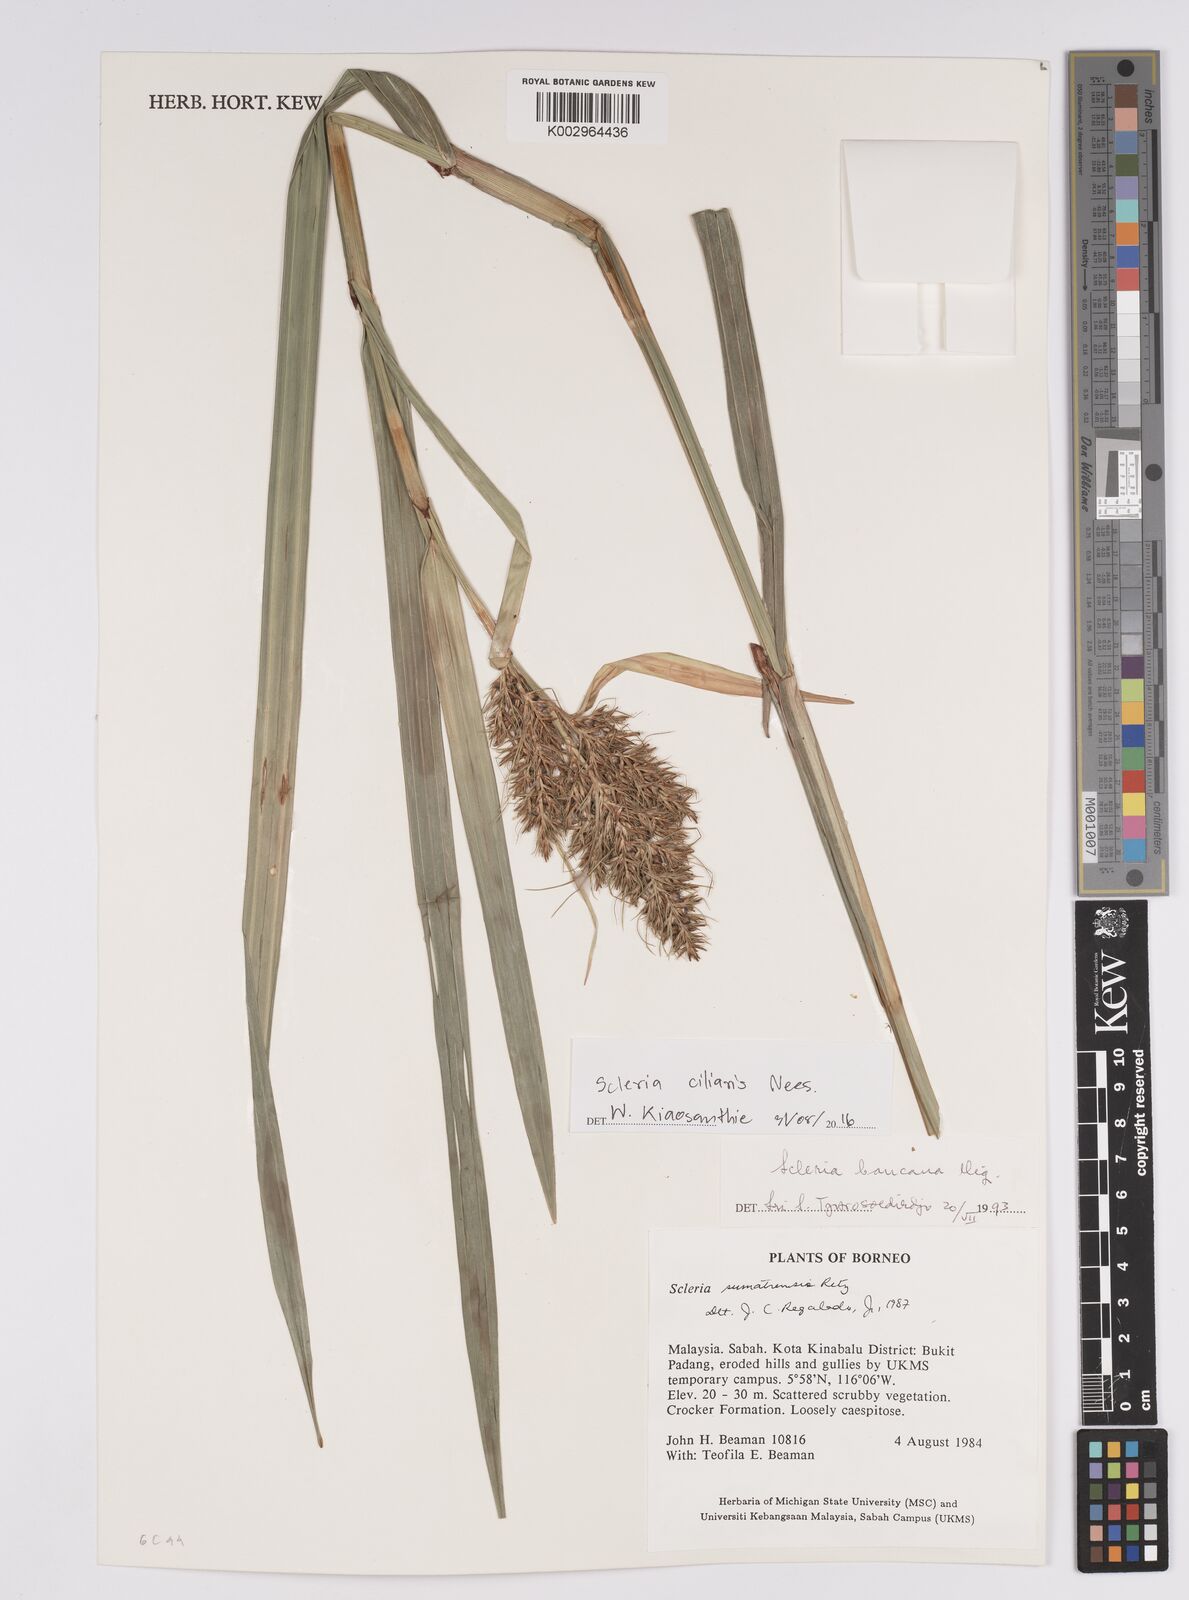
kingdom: Plantae
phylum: Tracheophyta
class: Liliopsida
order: Poales
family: Cyperaceae
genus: Scleria
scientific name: Scleria ciliaris
